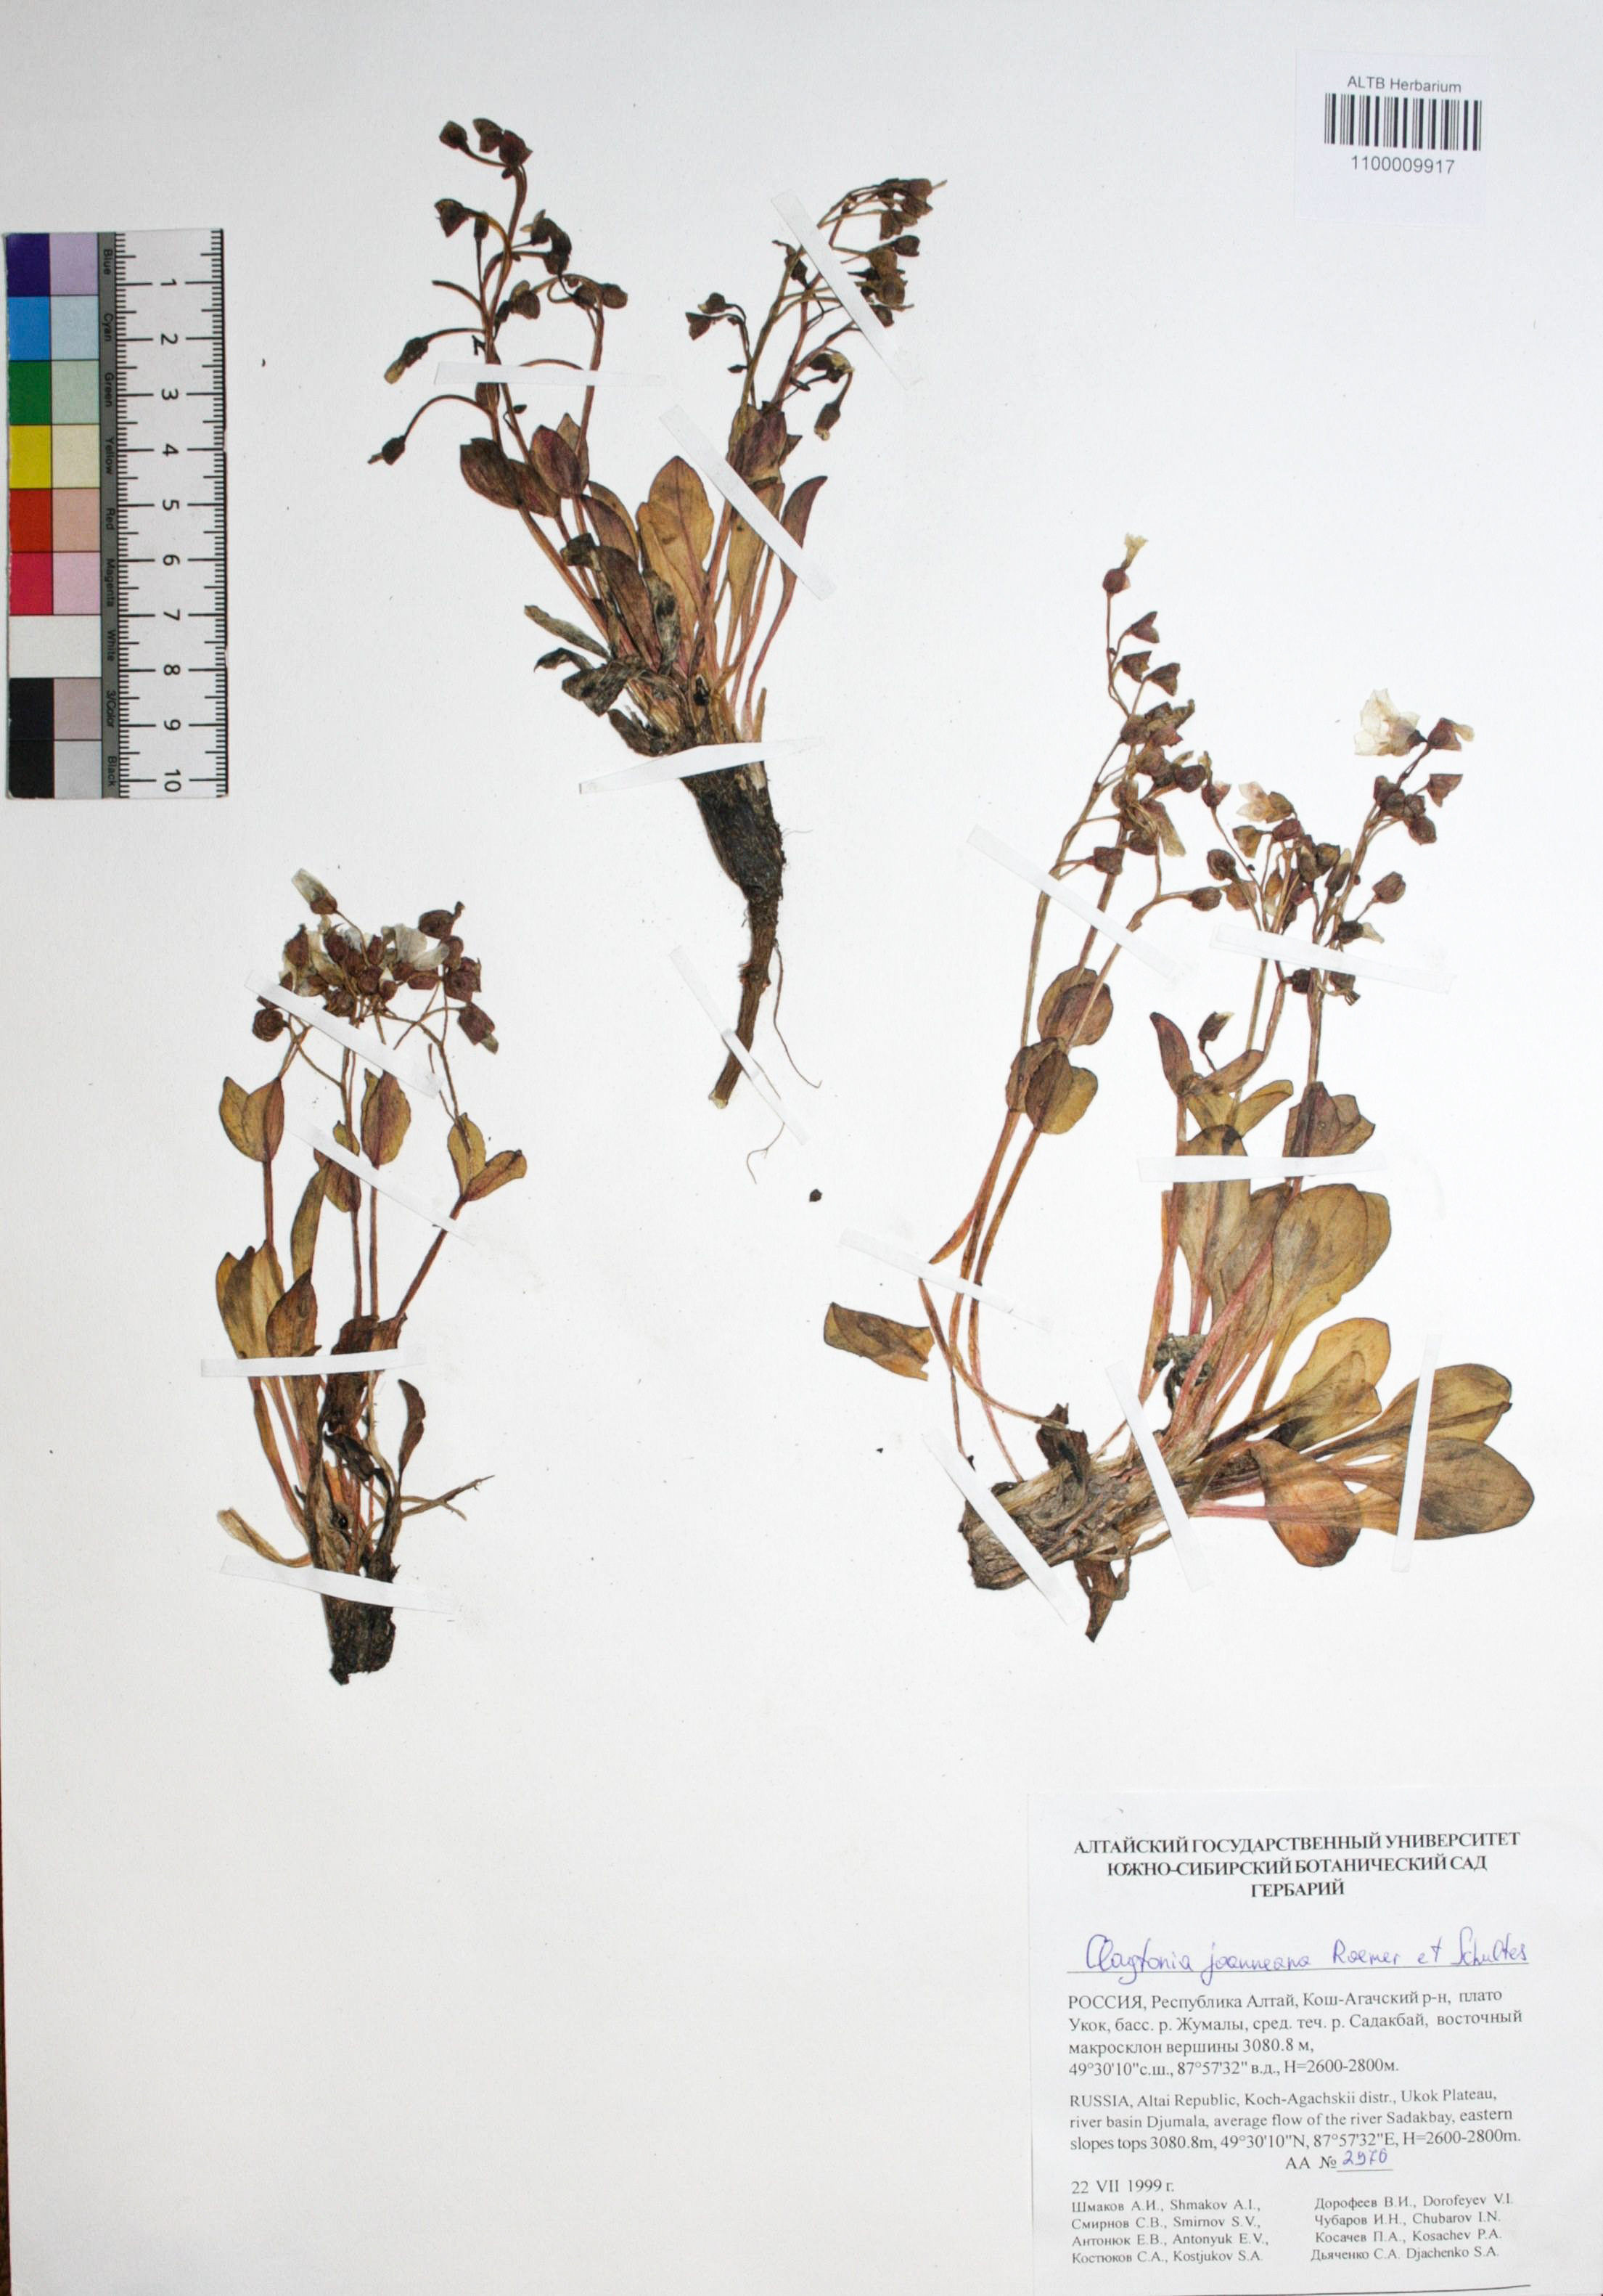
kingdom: Plantae
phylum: Tracheophyta
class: Magnoliopsida
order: Caryophyllales
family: Montiaceae
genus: Claytonia
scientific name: Claytonia joanneana
